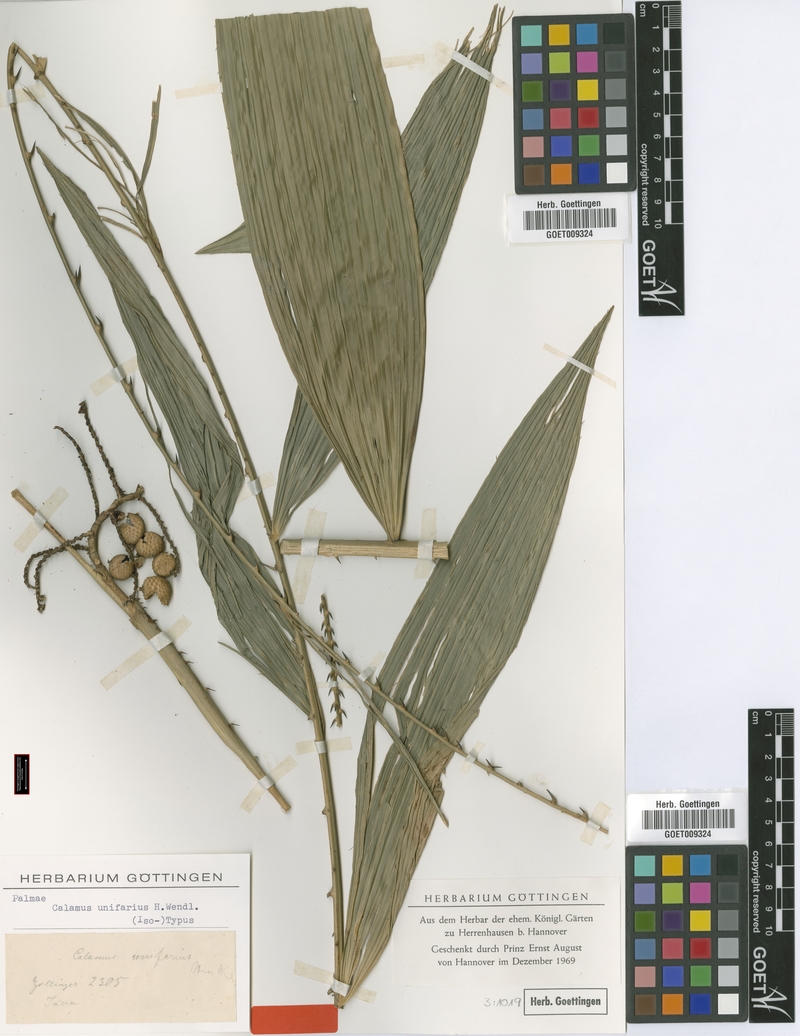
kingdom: Plantae
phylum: Tracheophyta
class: Liliopsida
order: Arecales
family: Arecaceae
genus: Calamus
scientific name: Calamus unifarius
